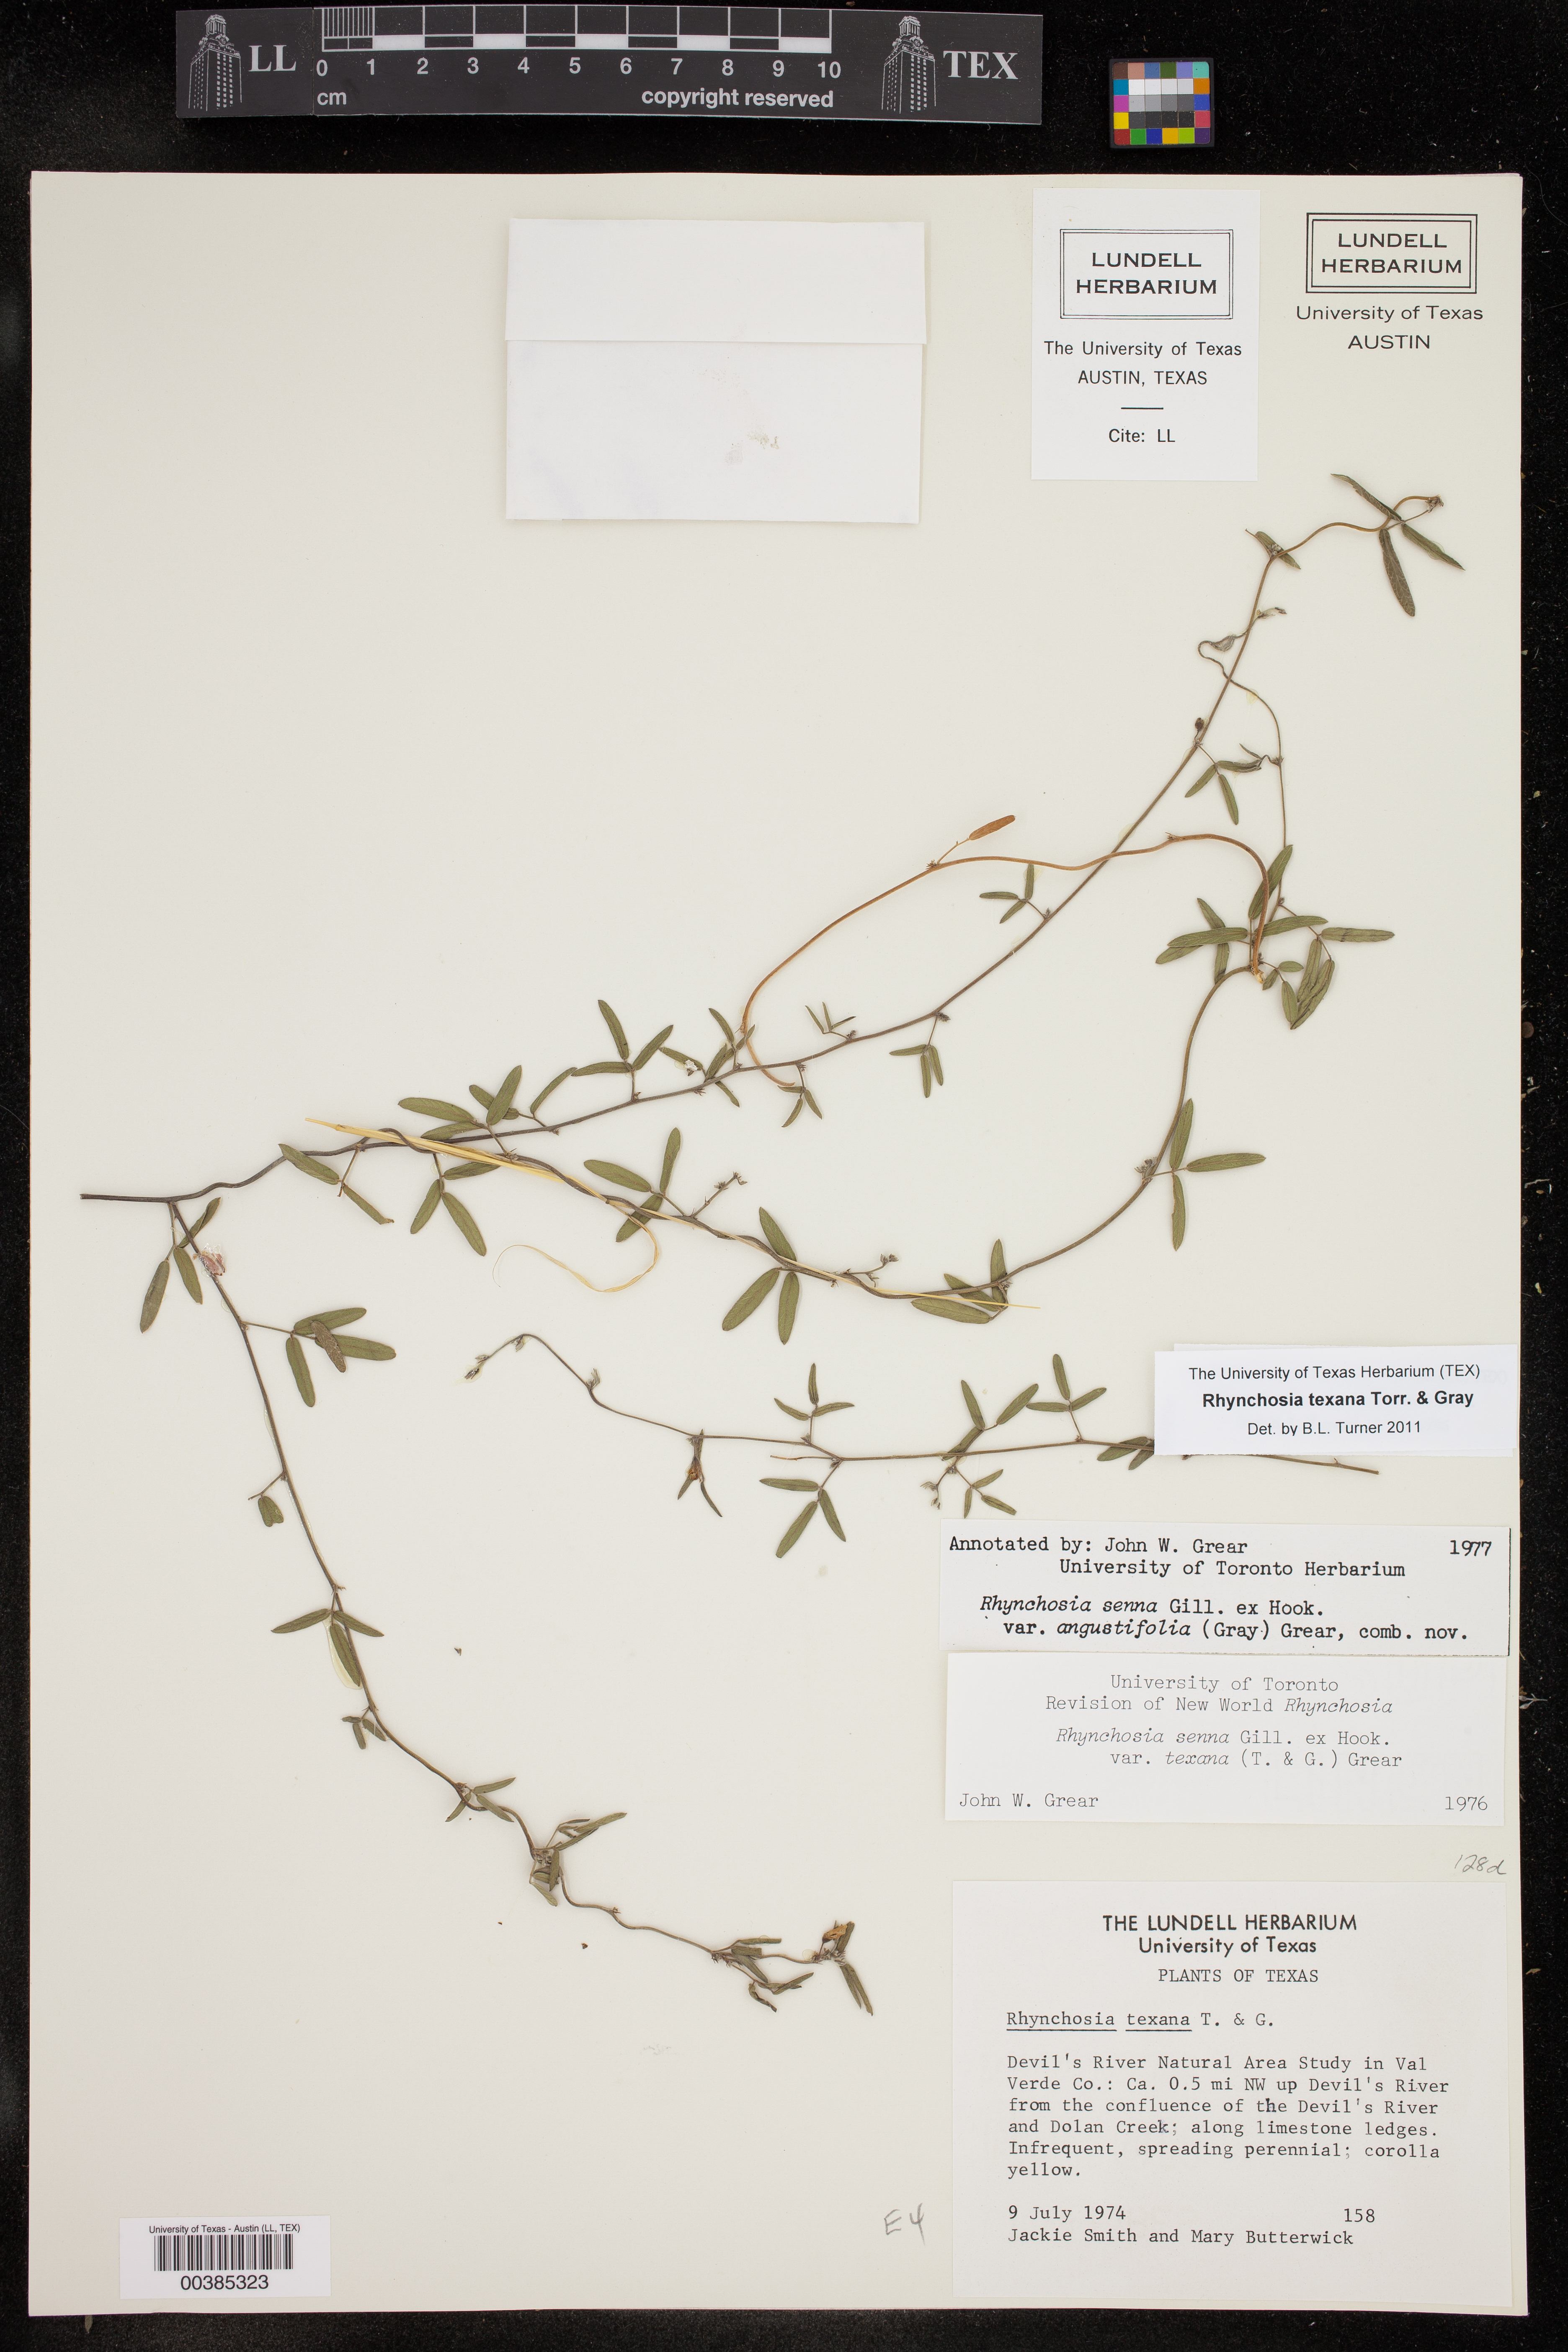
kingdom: Plantae
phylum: Tracheophyta
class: Magnoliopsida
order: Fabales
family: Fabaceae
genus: Rhynchosia
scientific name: Rhynchosia senna
